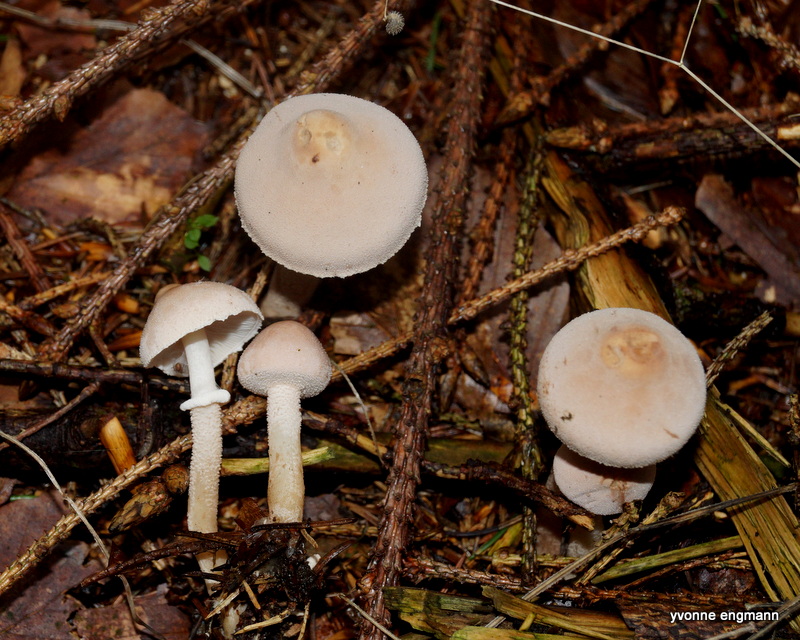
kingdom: Fungi
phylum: Basidiomycota
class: Agaricomycetes
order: Agaricales
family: Tricholomataceae
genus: Cystoderma
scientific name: Cystoderma carcharias
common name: rødgrå grynhat
